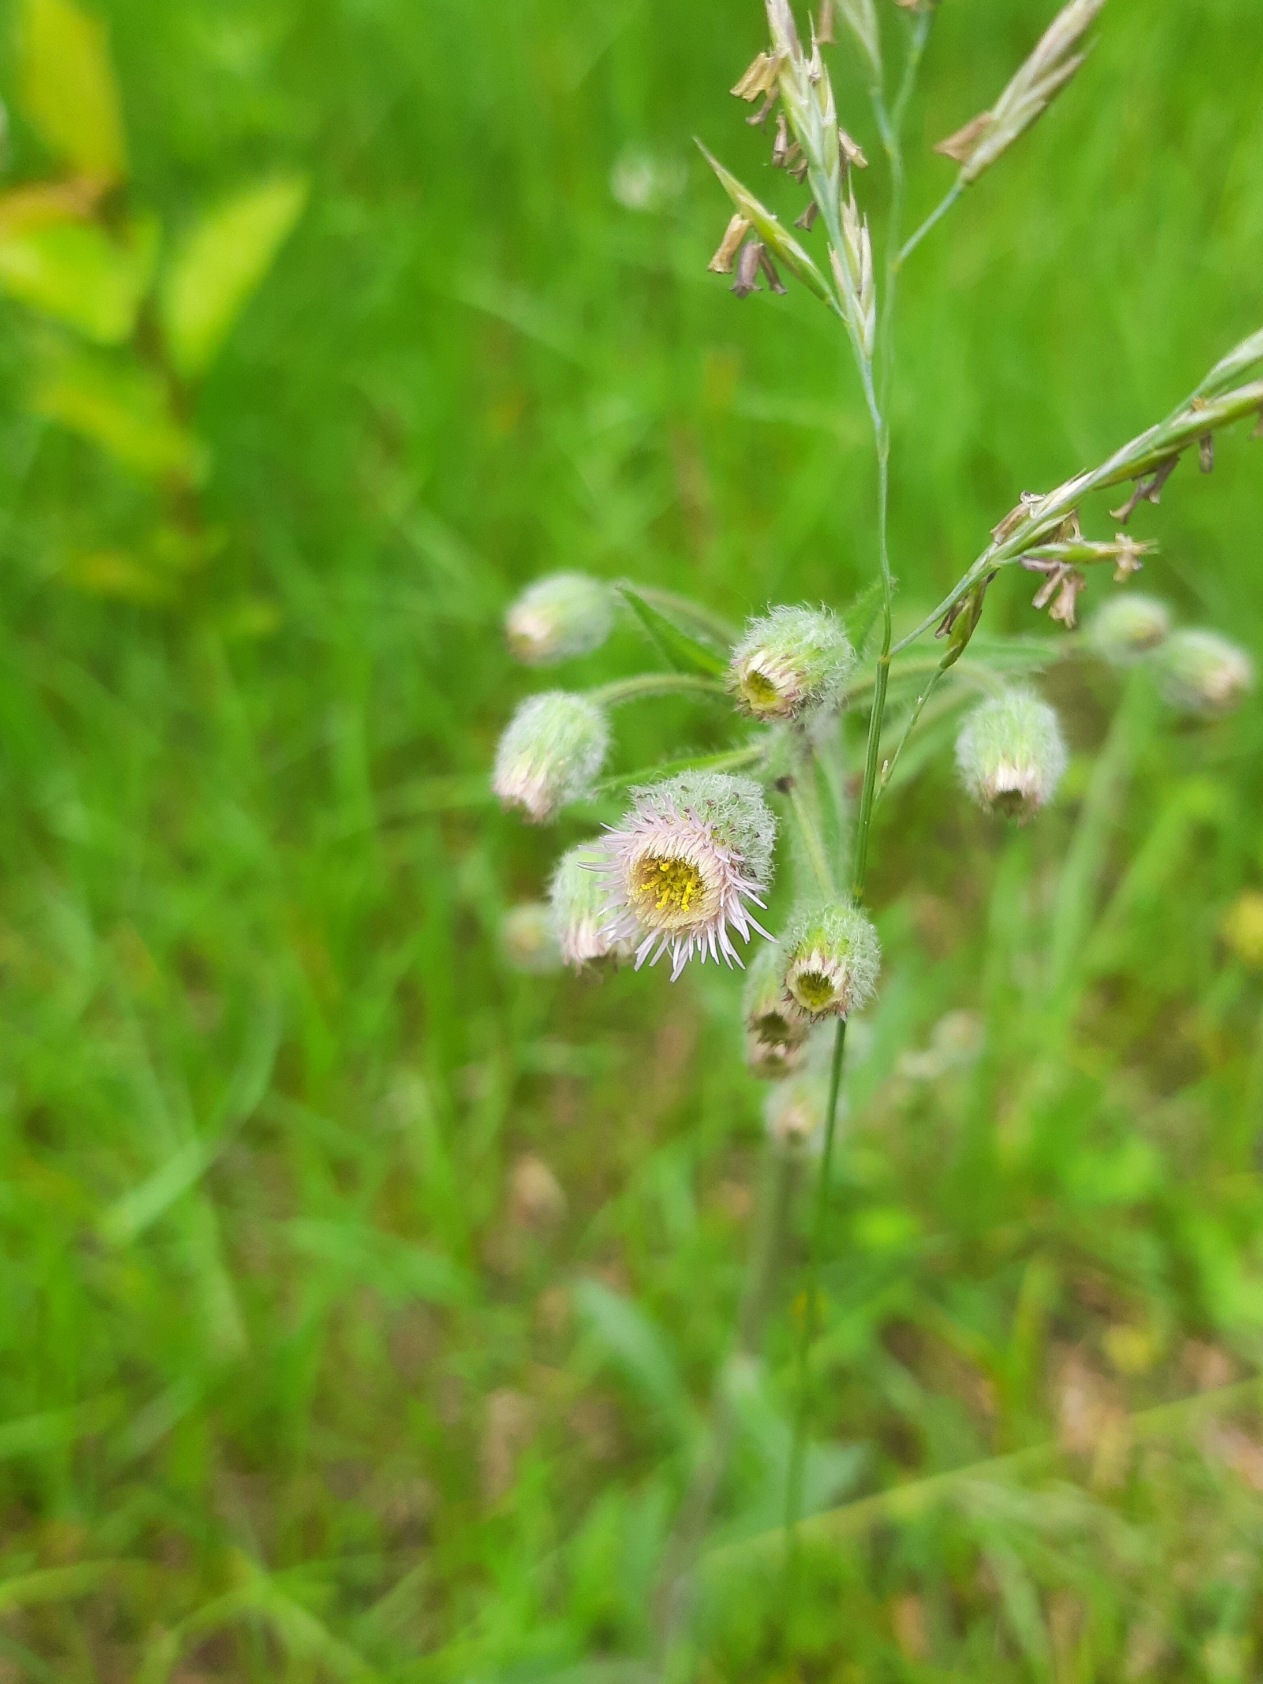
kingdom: Plantae
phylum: Tracheophyta
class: Magnoliopsida
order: Asterales
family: Asteraceae
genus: Erigeron
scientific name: Erigeron acris
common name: Bitter bakkestjerne
